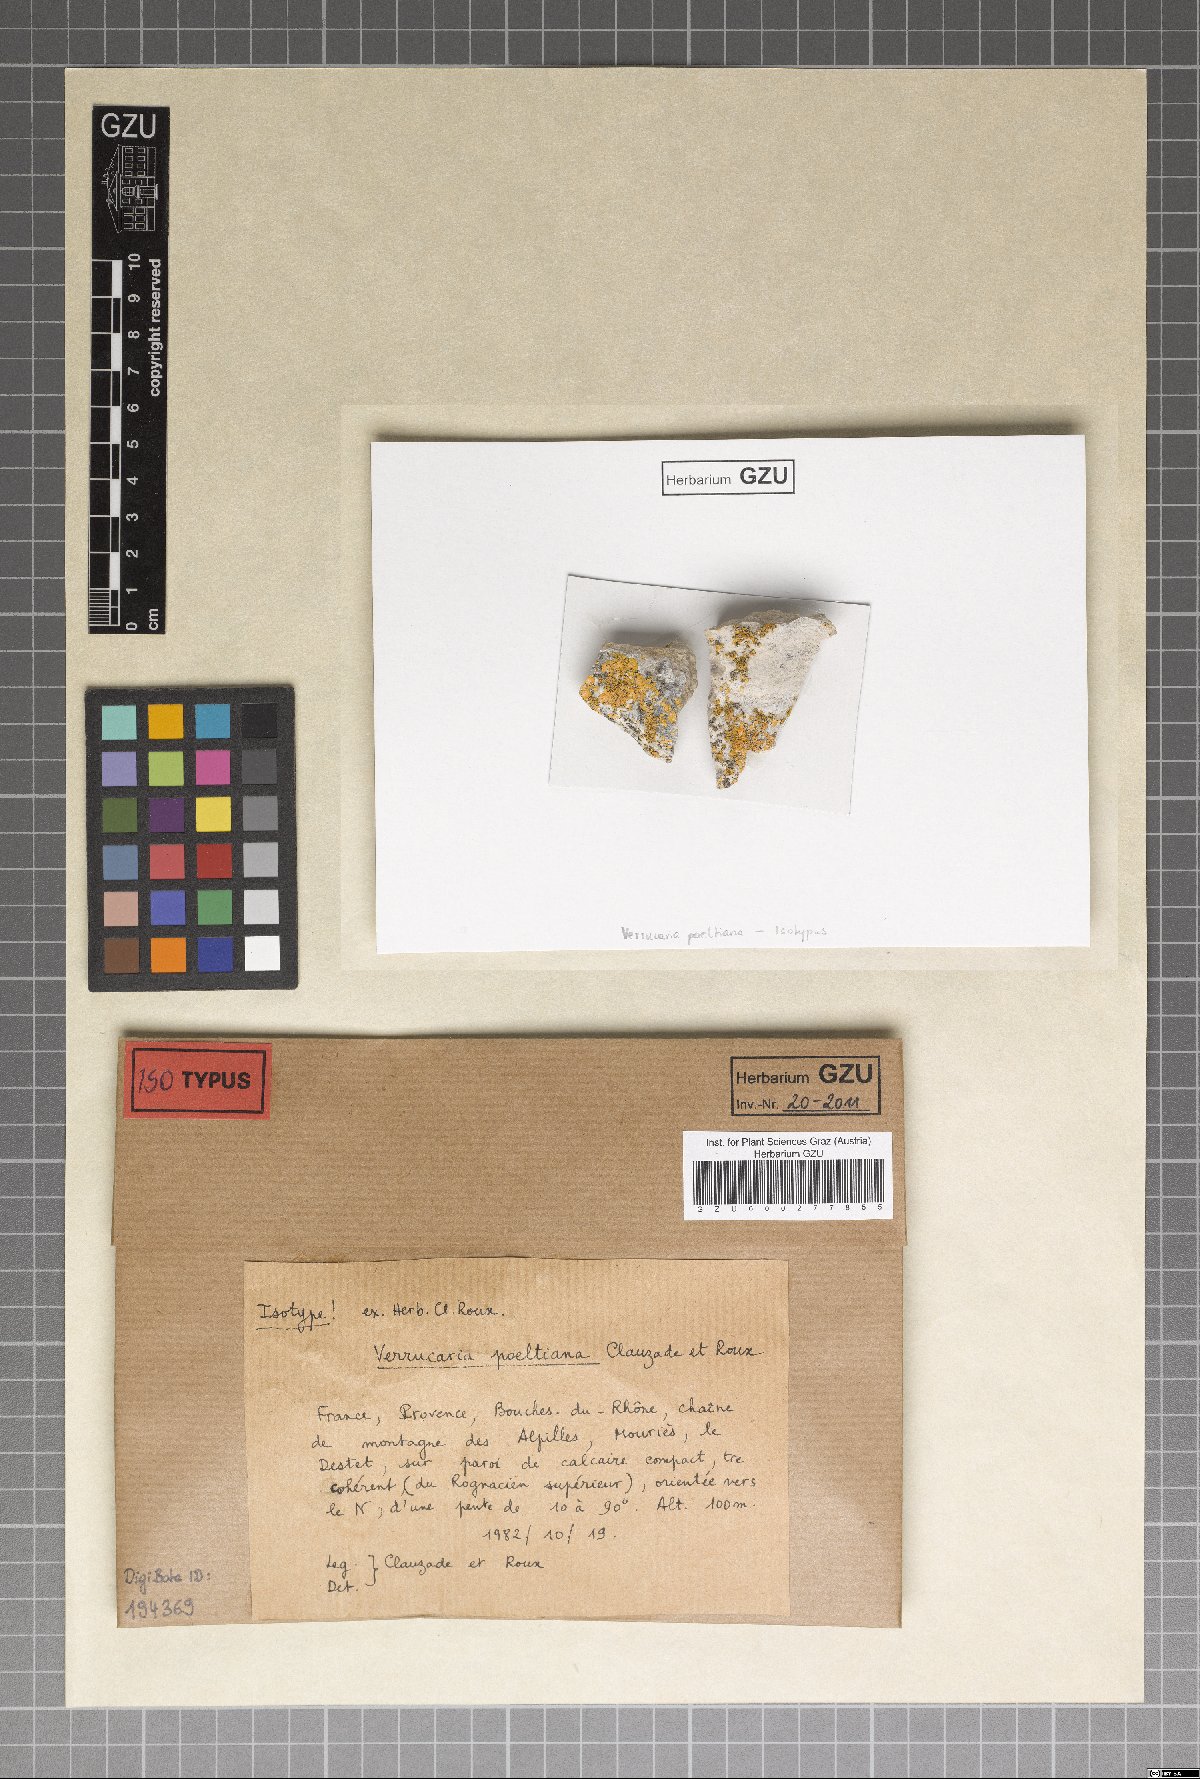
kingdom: Fungi
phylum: Ascomycota
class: Eurotiomycetes
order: Verrucariales
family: Verrucariaceae
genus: Verruculopsis
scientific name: Verruculopsis poeltiana
